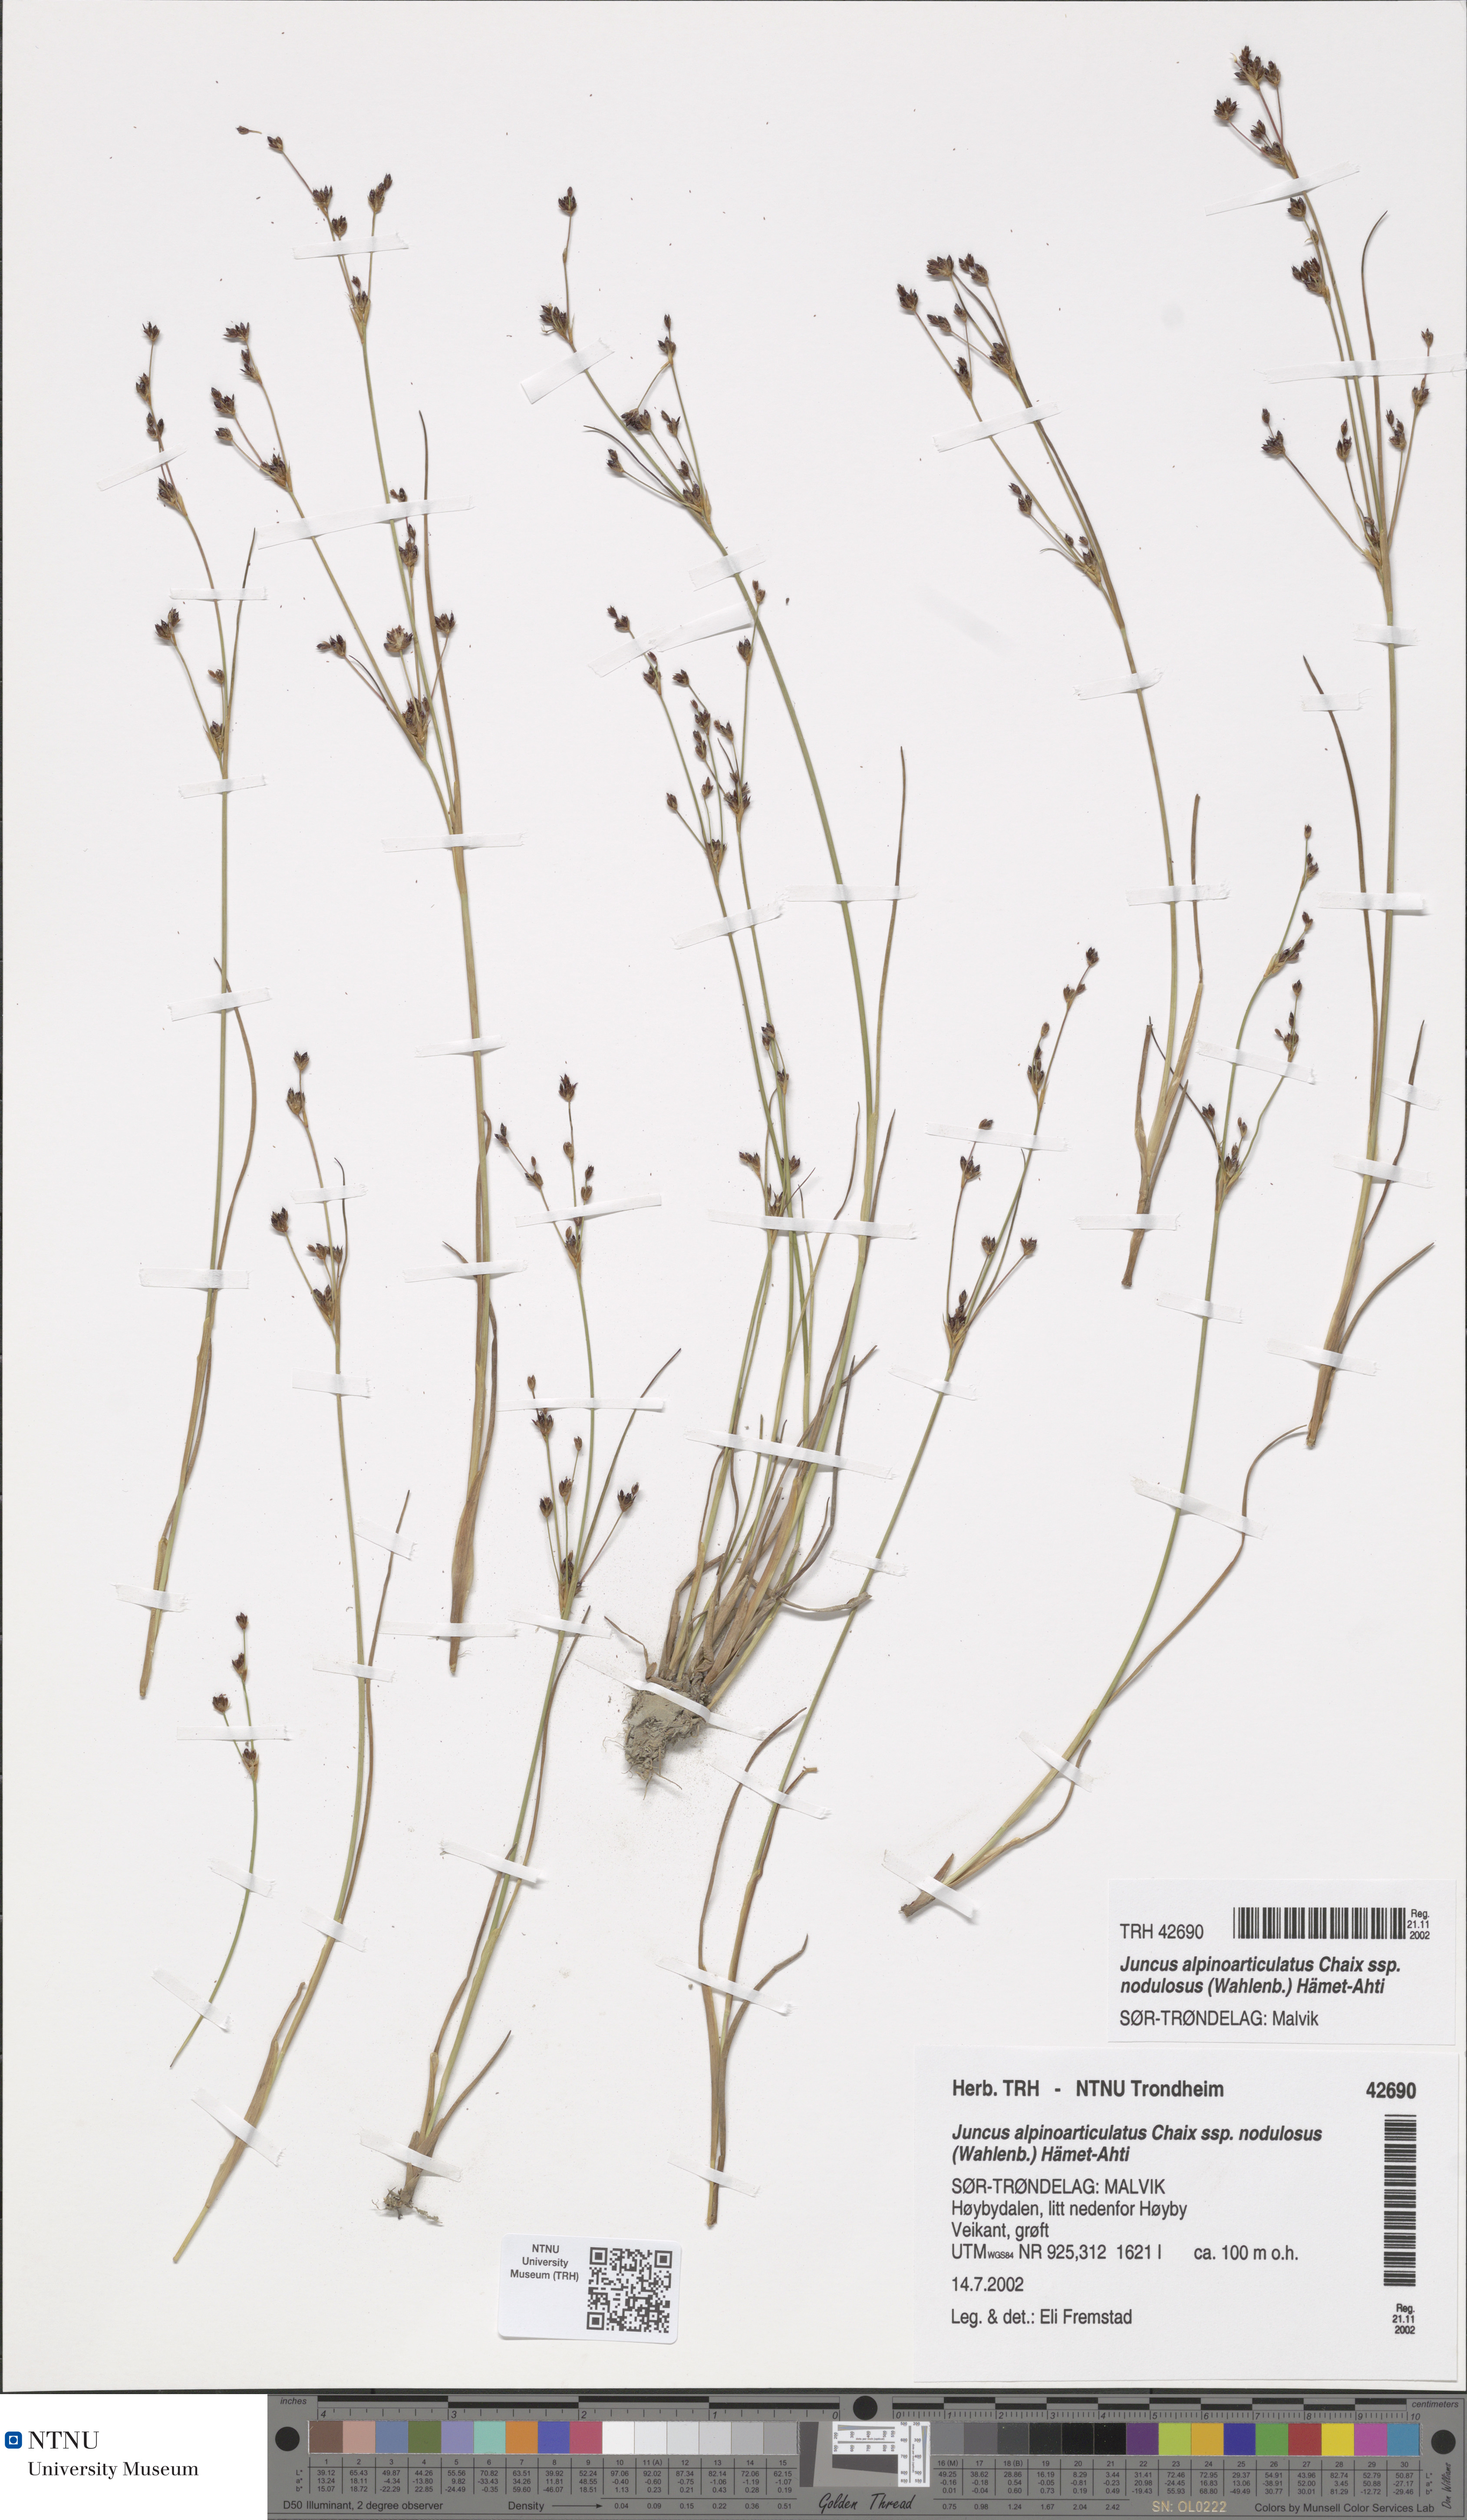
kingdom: Plantae
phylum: Tracheophyta
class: Liliopsida
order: Poales
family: Juncaceae
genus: Juncus
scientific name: Juncus alpinoarticulatus
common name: Alpine rush
